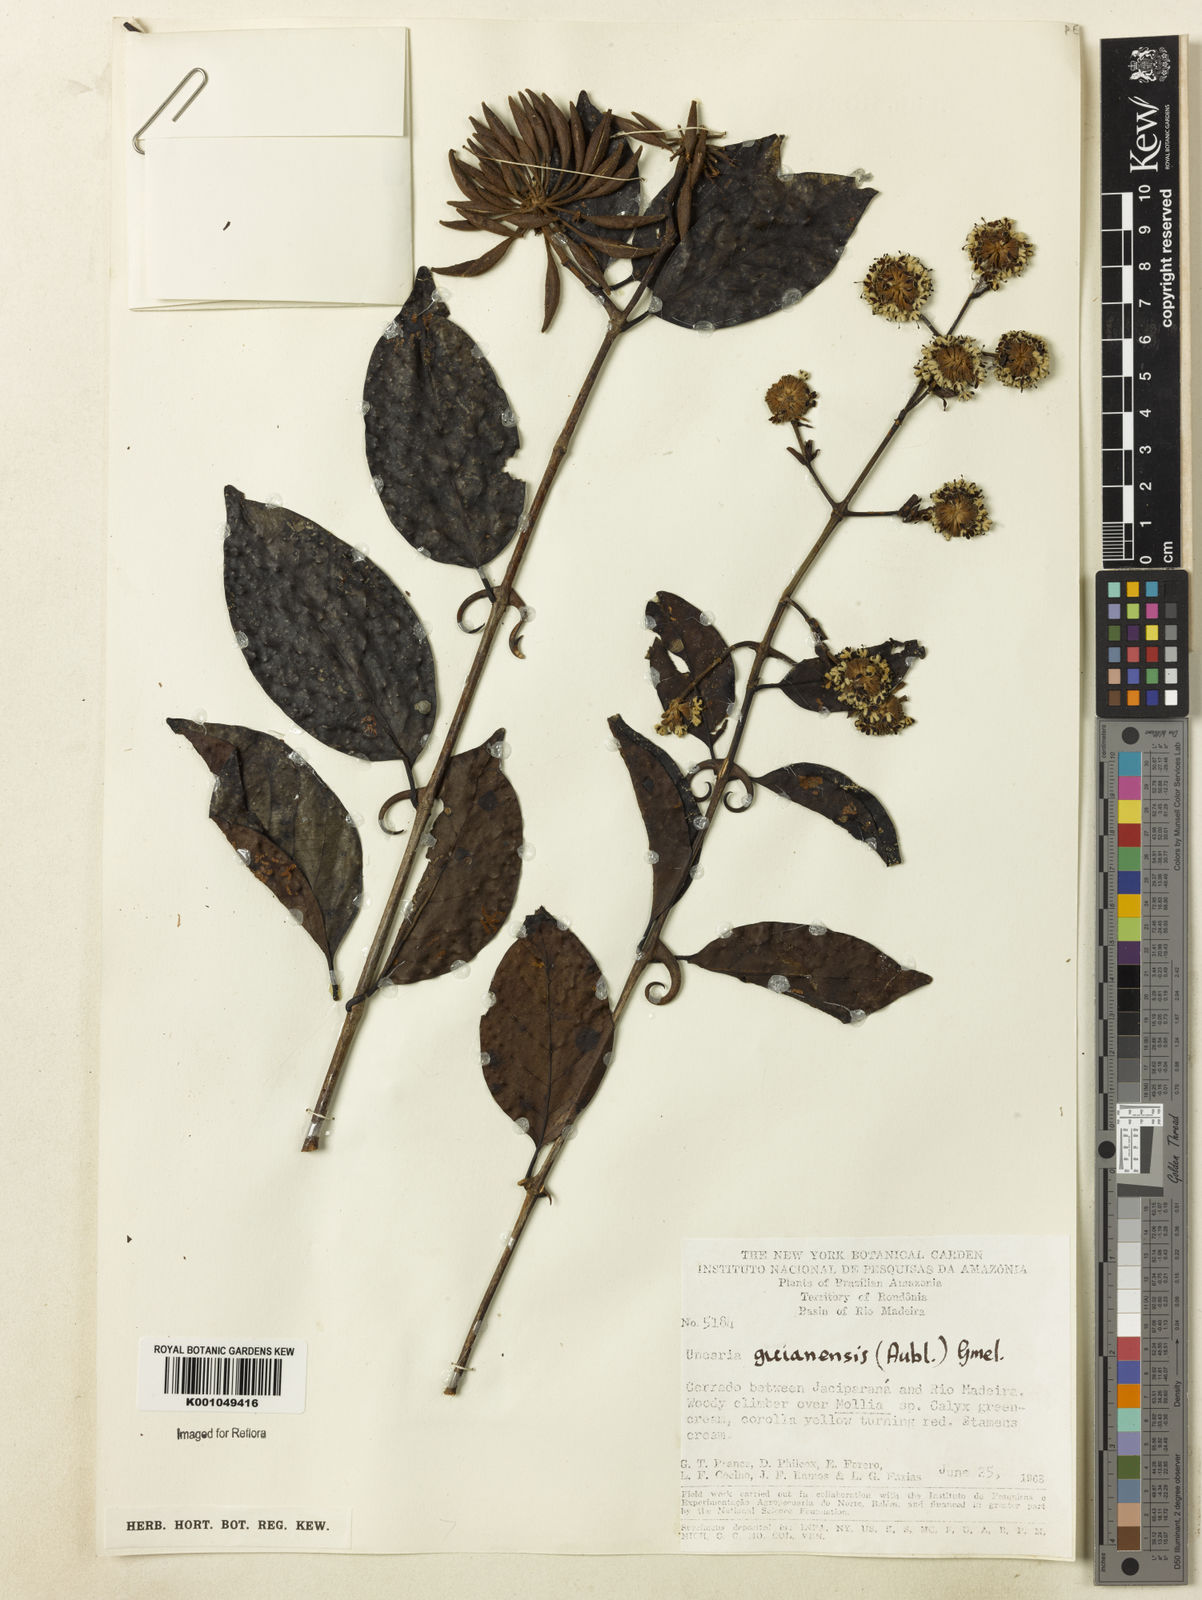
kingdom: Plantae
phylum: Tracheophyta
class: Magnoliopsida
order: Gentianales
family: Rubiaceae
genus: Uncaria
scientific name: Uncaria guianensis
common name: Cat's-claw
